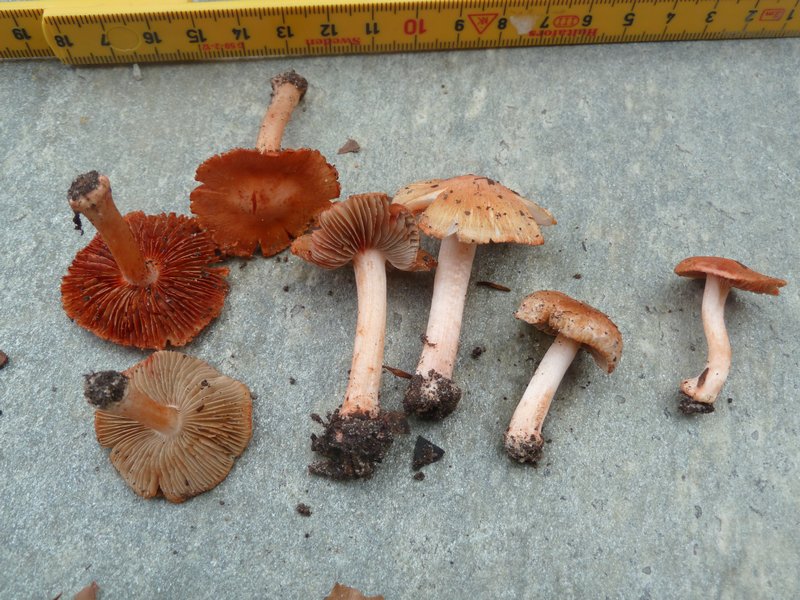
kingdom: Fungi
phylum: Basidiomycota
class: Agaricomycetes
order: Agaricales
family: Inocybaceae
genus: Inocybe
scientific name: Inocybe godeyi
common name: orangerødmende trævlhat
